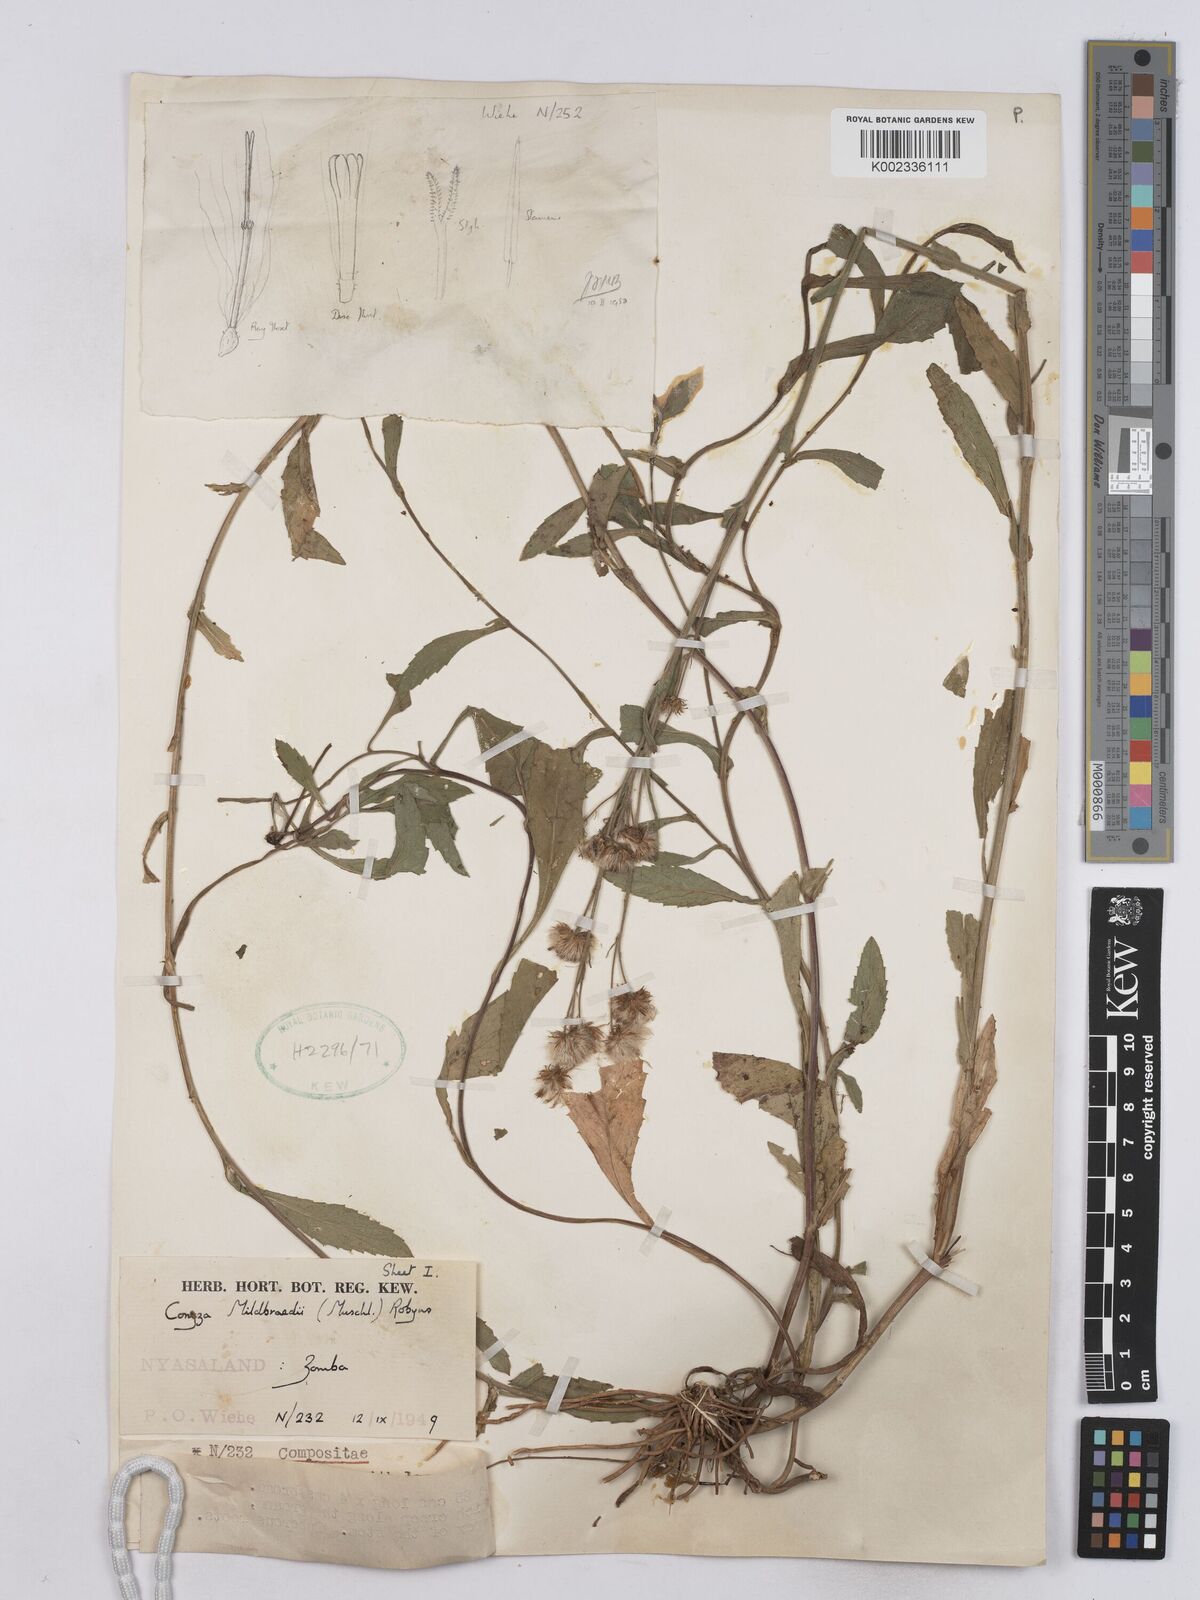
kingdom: Plantae
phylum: Tracheophyta
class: Magnoliopsida
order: Asterales
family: Asteraceae
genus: Conyza
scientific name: Conyza limosa
